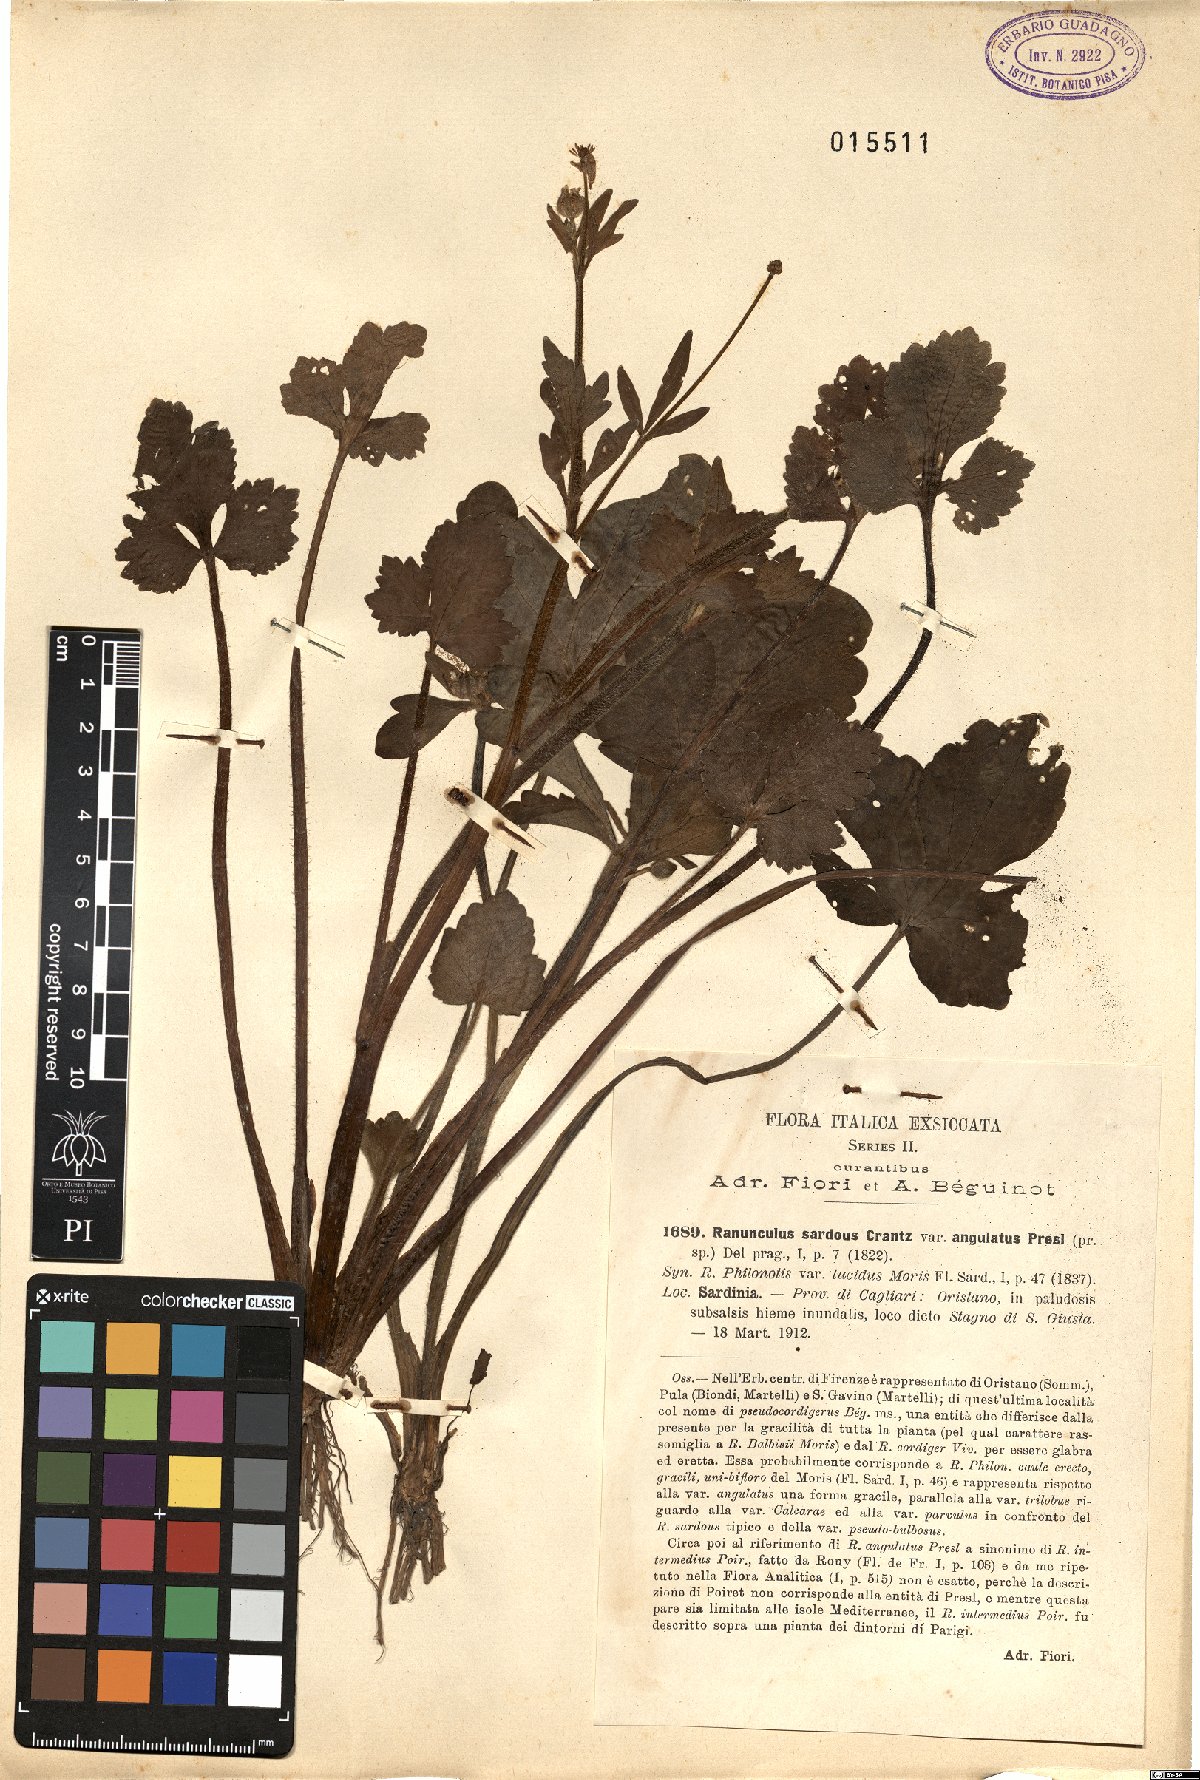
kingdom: Plantae
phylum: Tracheophyta
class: Magnoliopsida
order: Ranunculales
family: Ranunculaceae
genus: Ranunculus
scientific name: Ranunculus
